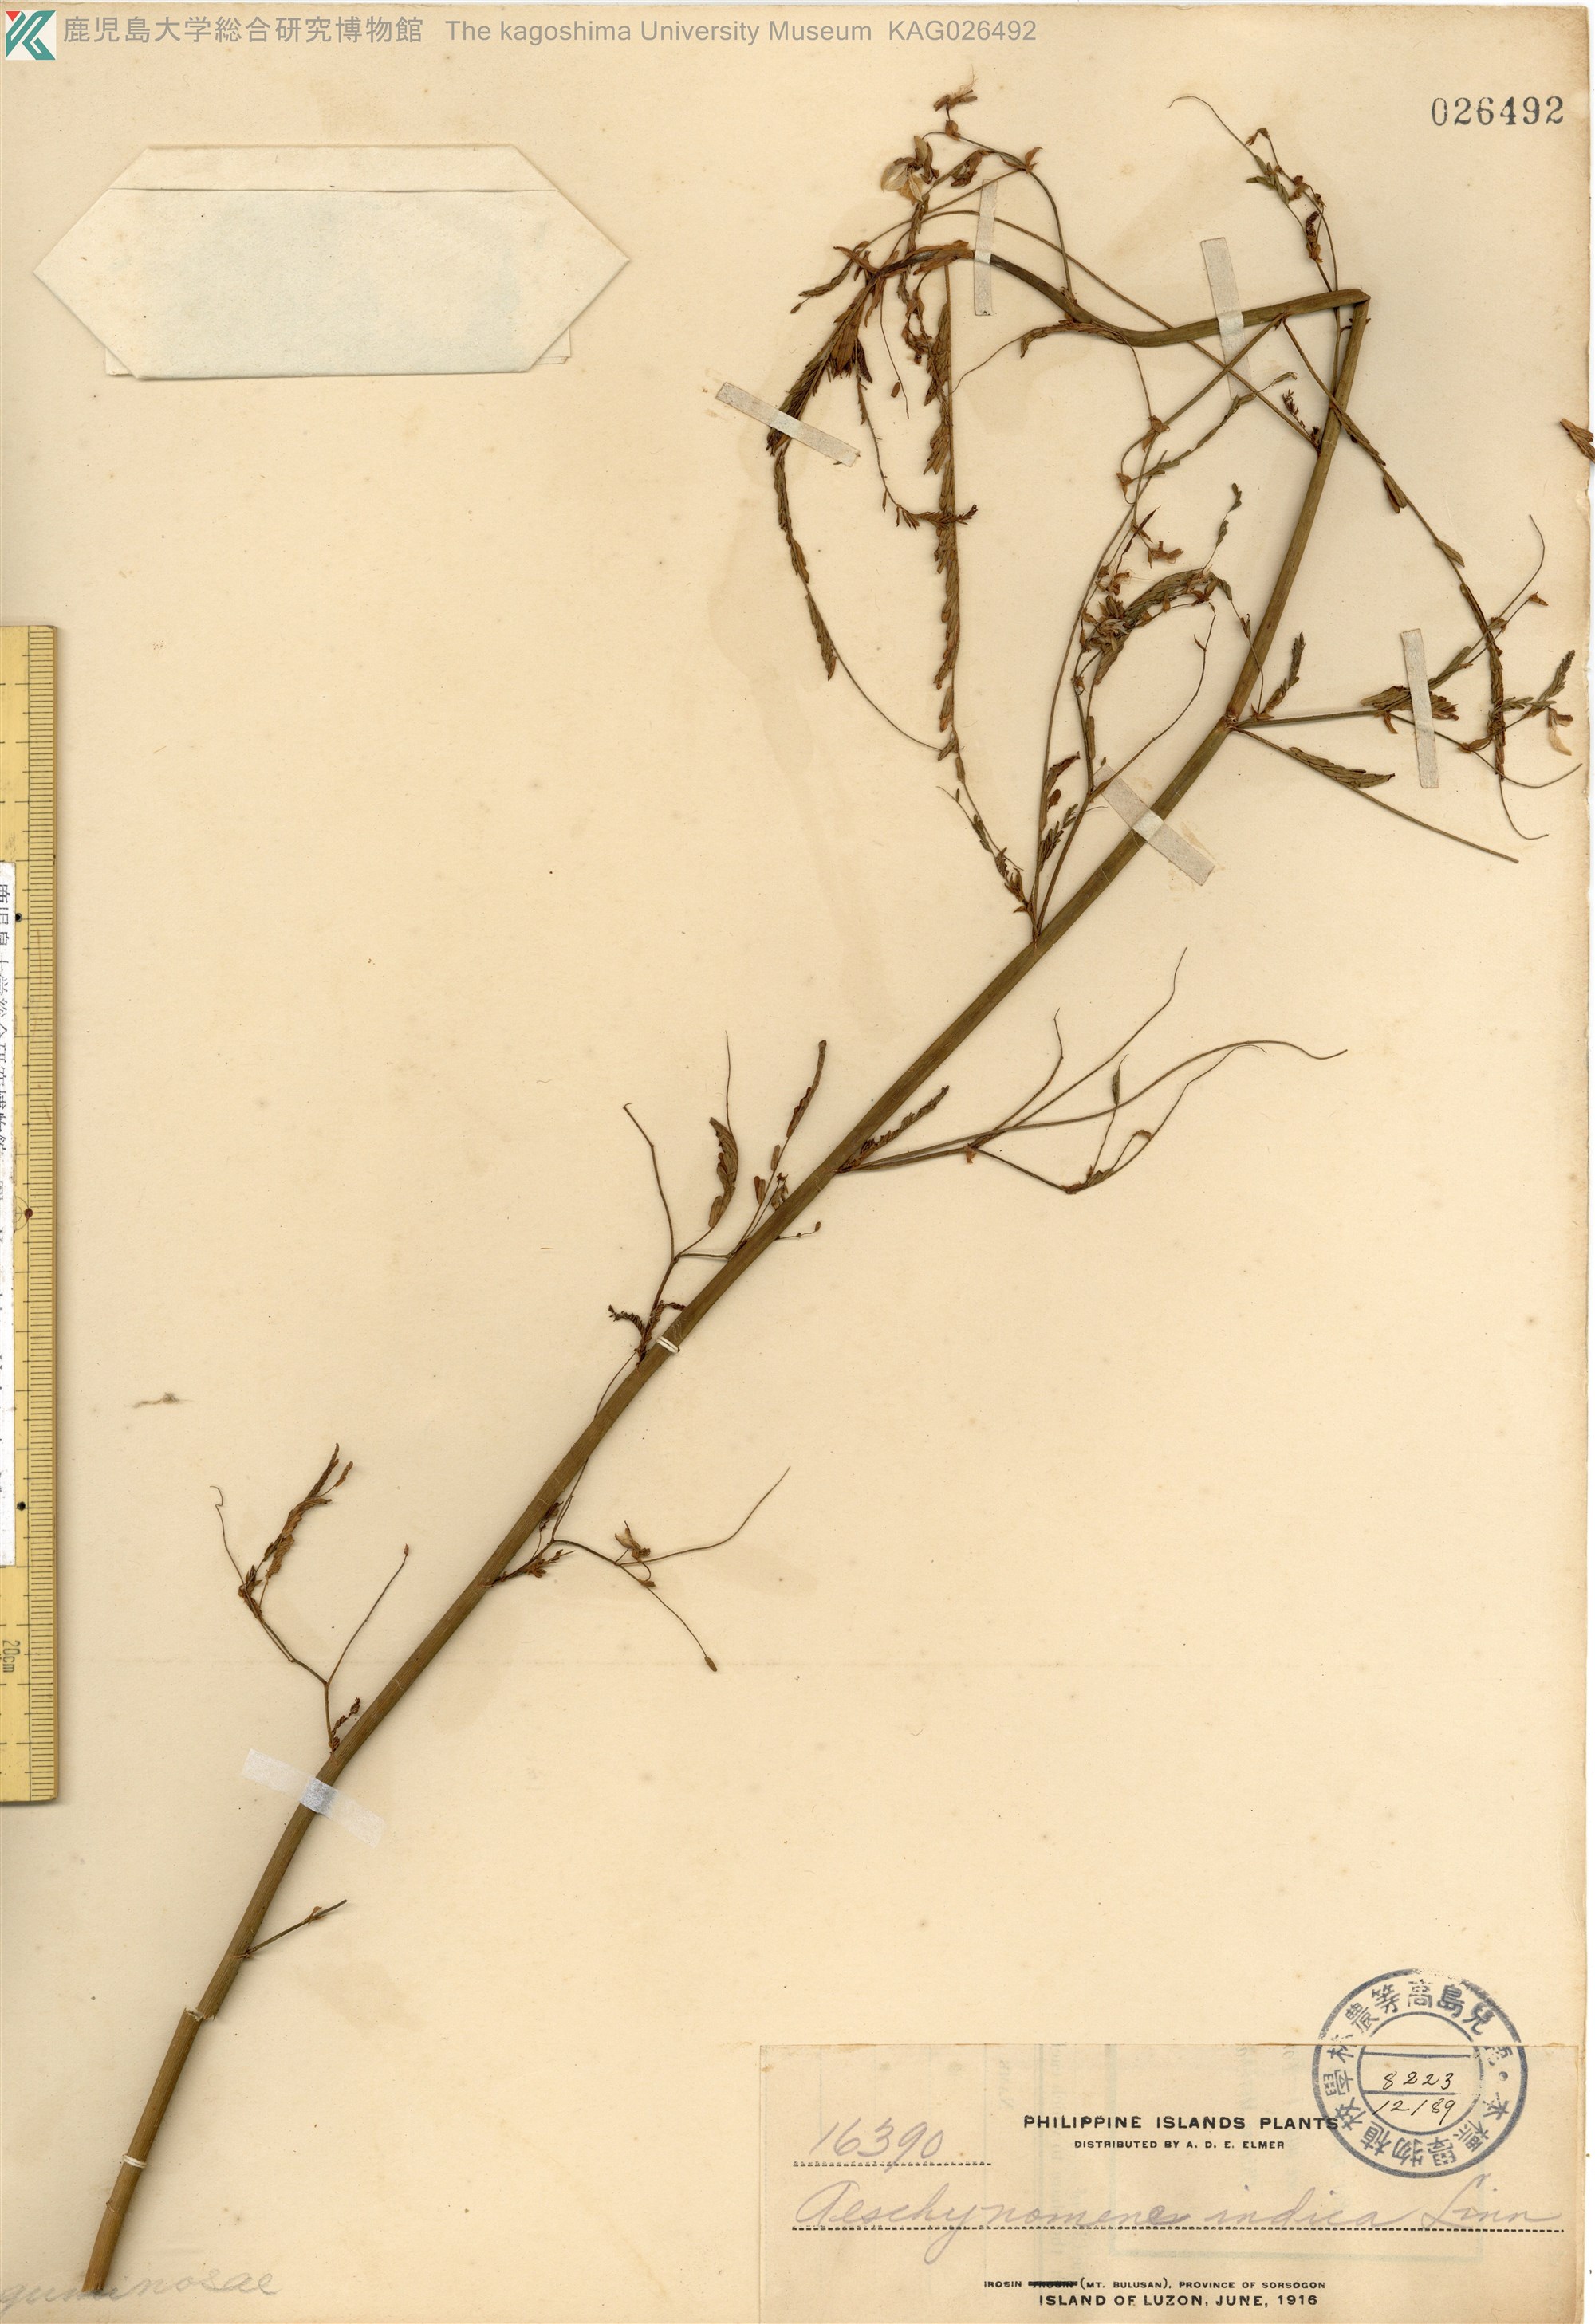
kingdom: Plantae
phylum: Tracheophyta
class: Magnoliopsida
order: Fabales
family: Fabaceae
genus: Aeschynomene
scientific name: Aeschynomene indica
